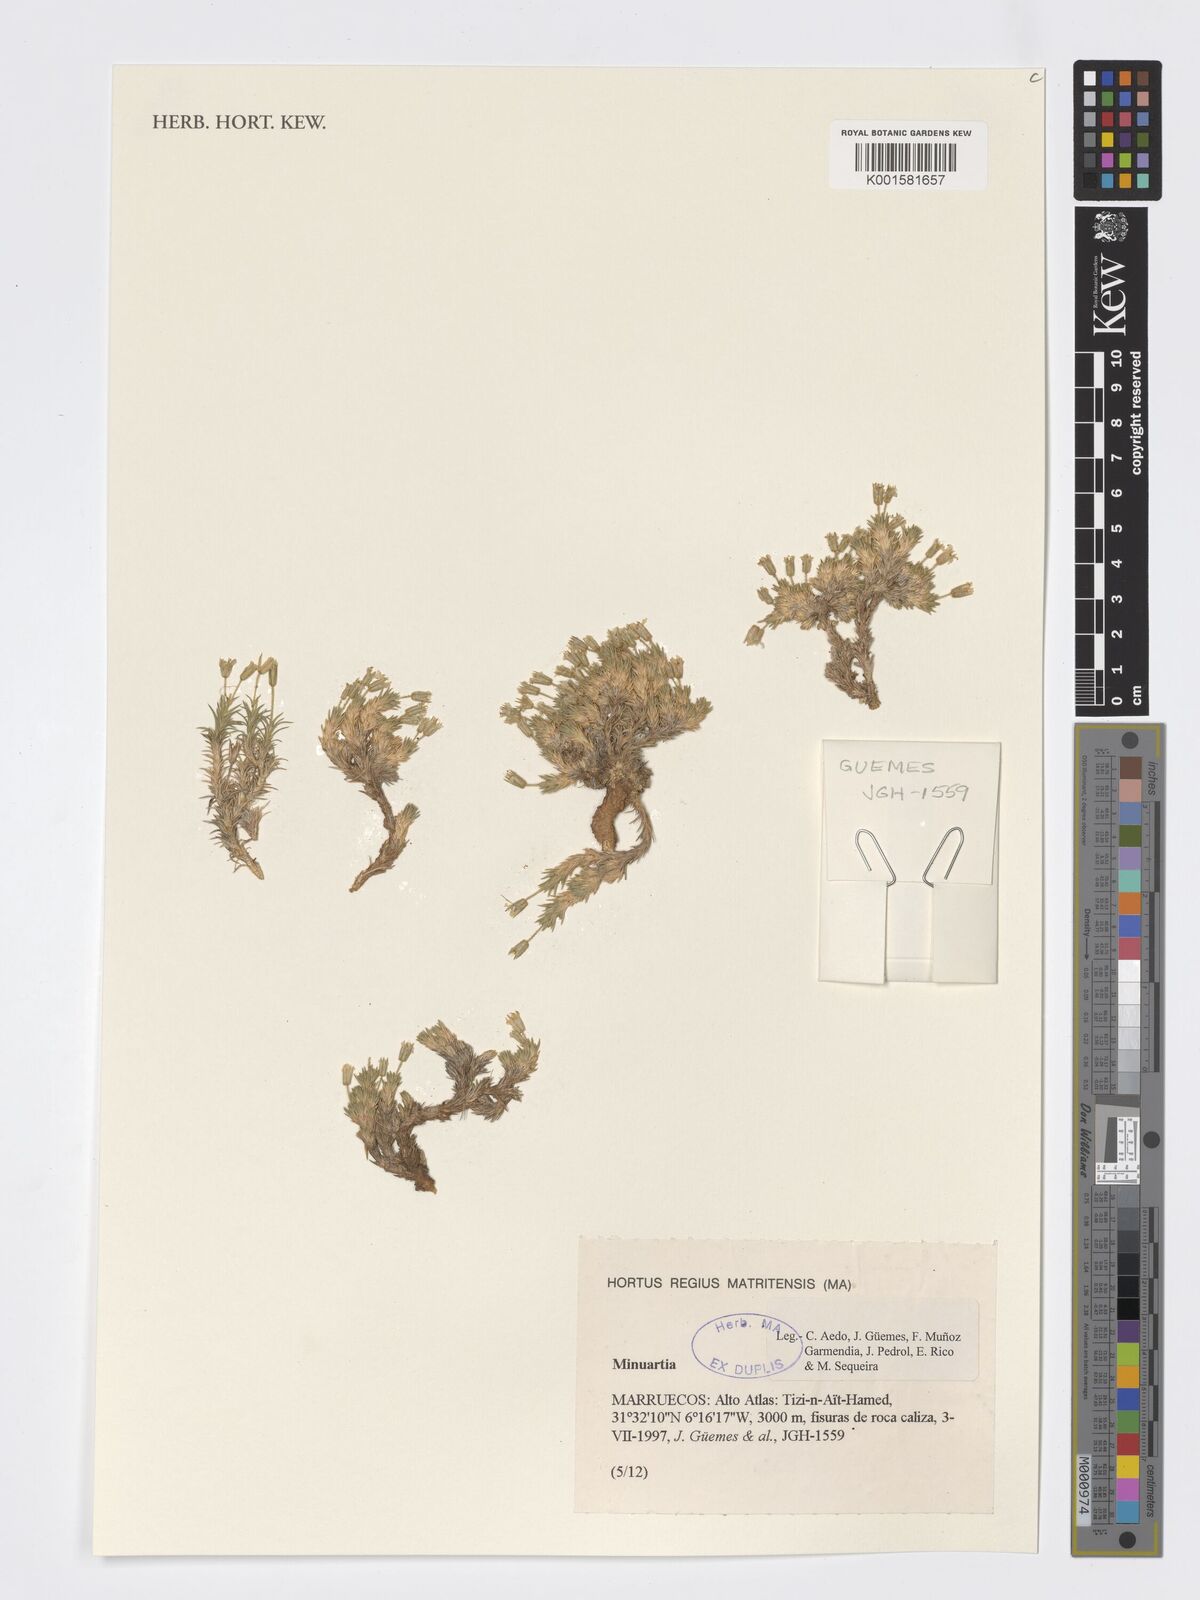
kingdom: Plantae
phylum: Tracheophyta
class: Magnoliopsida
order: Caryophyllales
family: Caryophyllaceae
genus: Minuartia
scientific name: Minuartia
